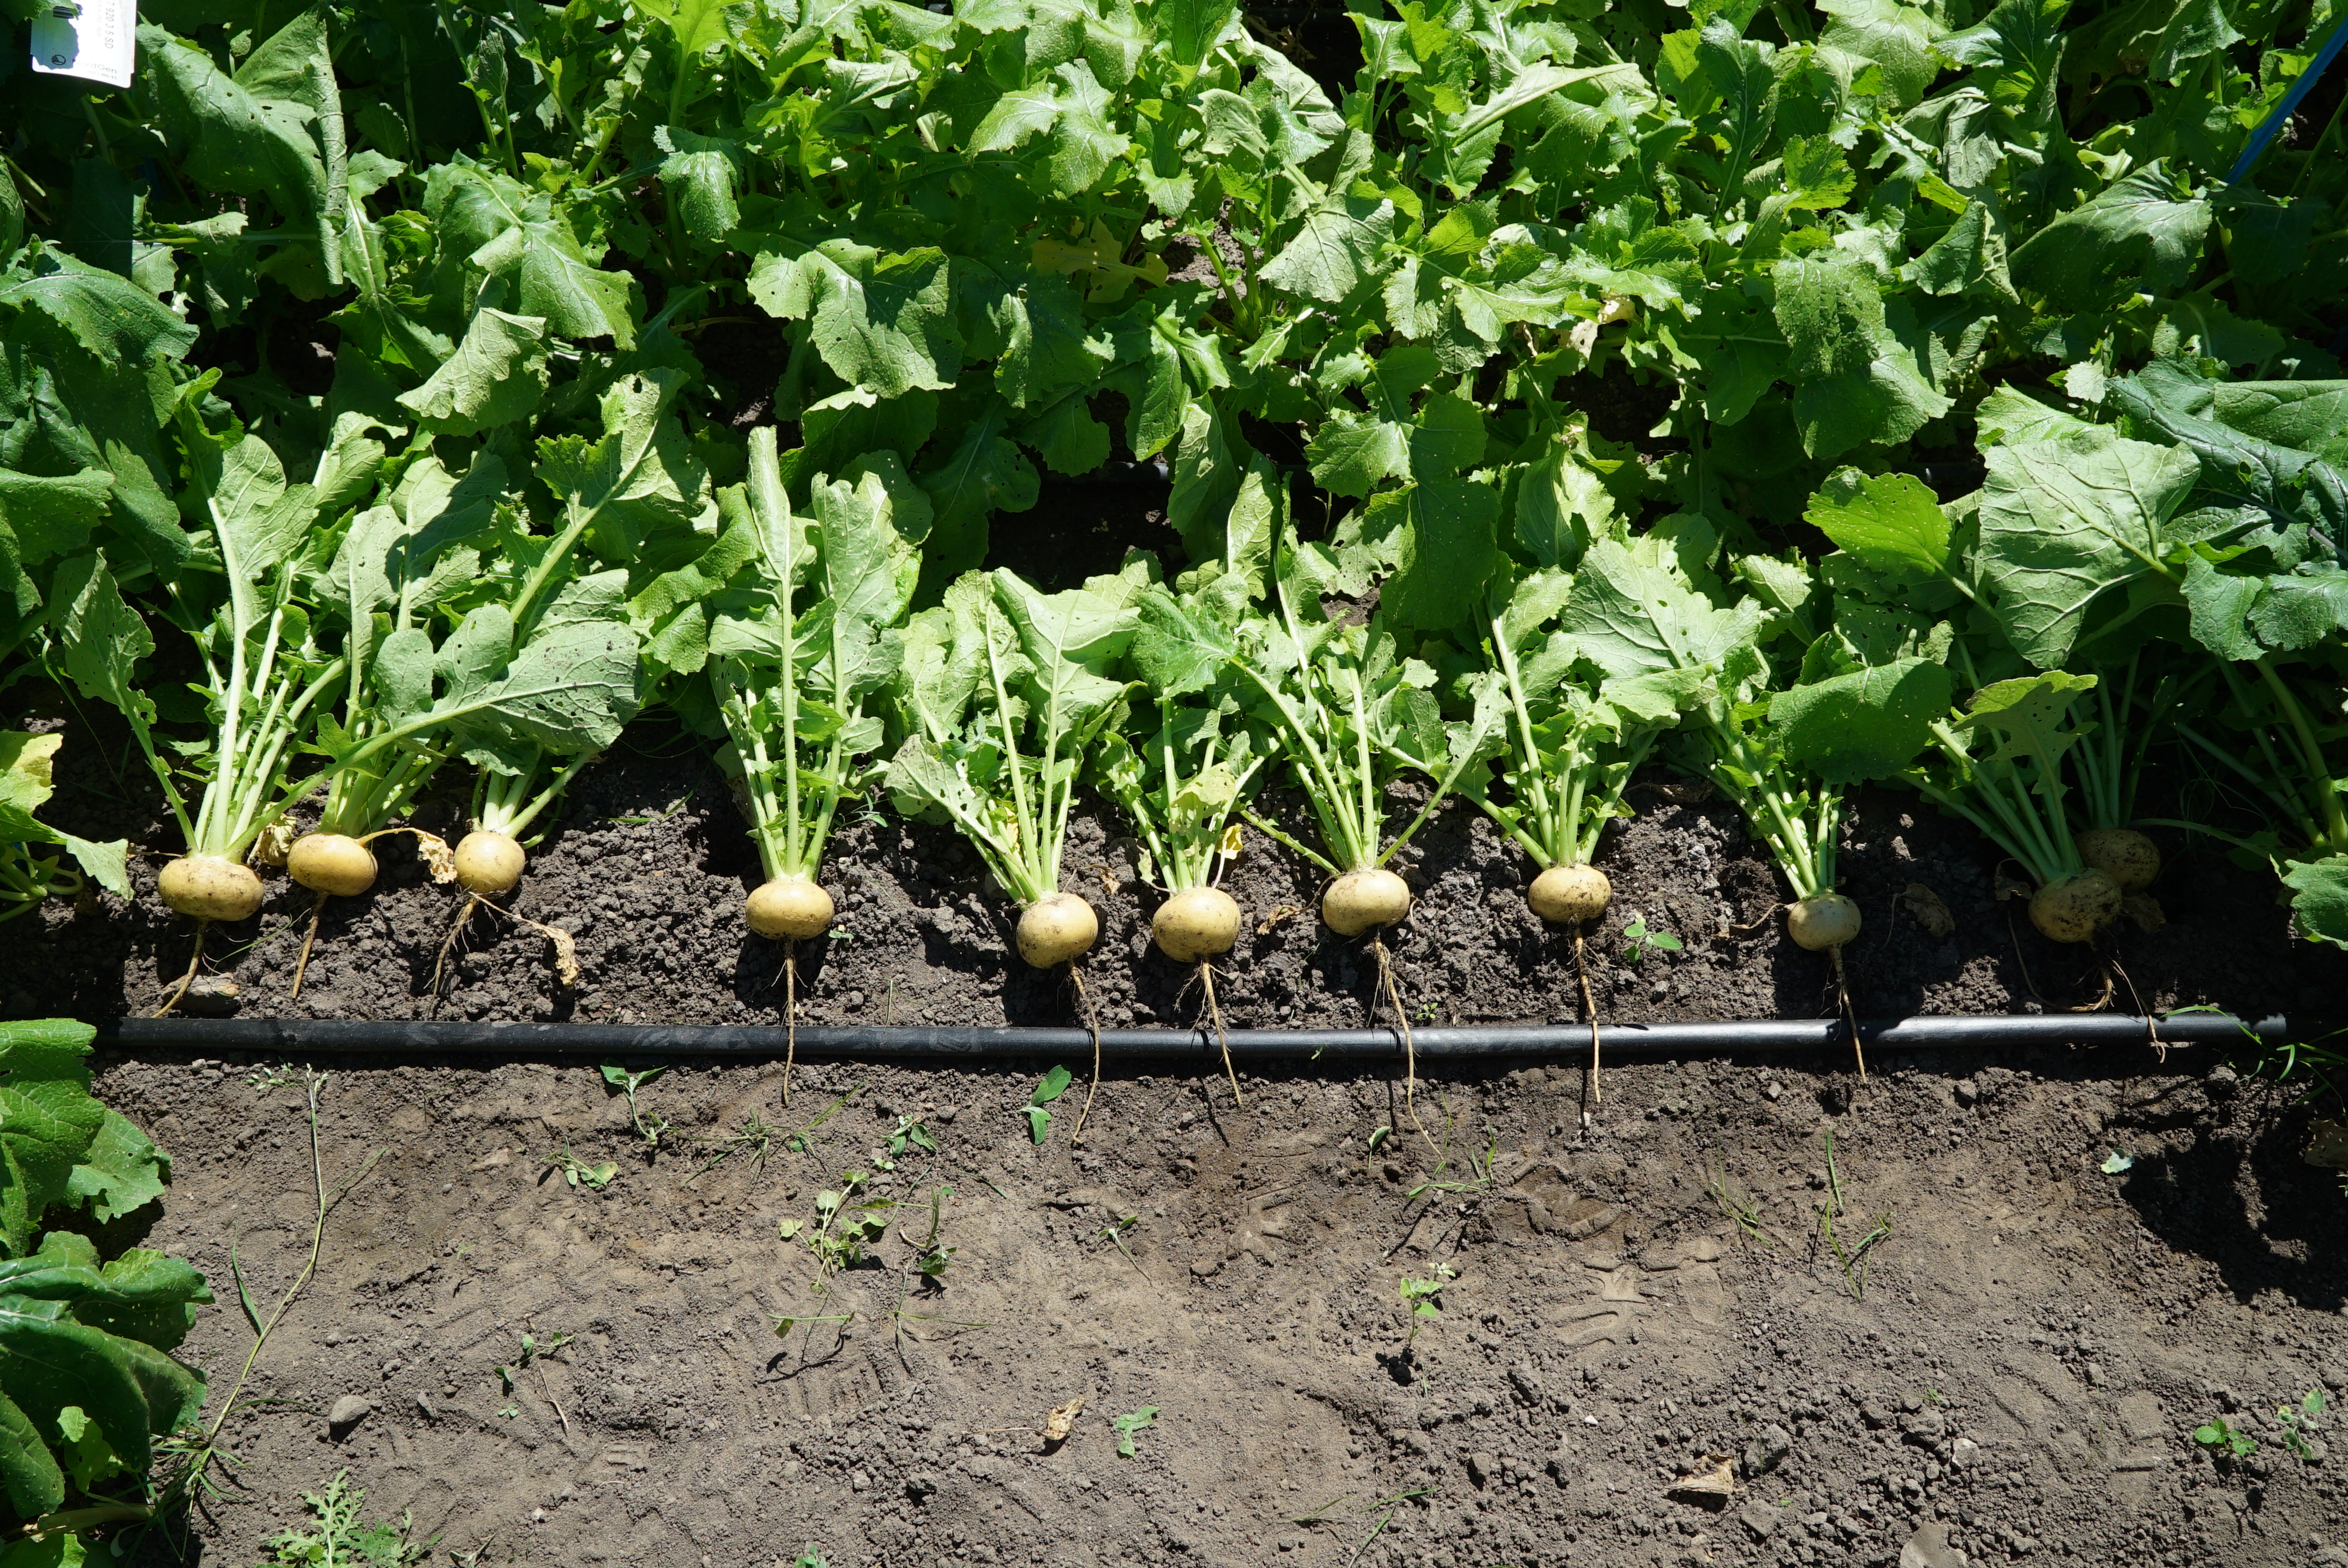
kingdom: Plantae
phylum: Tracheophyta
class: Magnoliopsida
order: Brassicales
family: Brassicaceae
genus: Brassica
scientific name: Brassica rapa
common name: Field mustard
